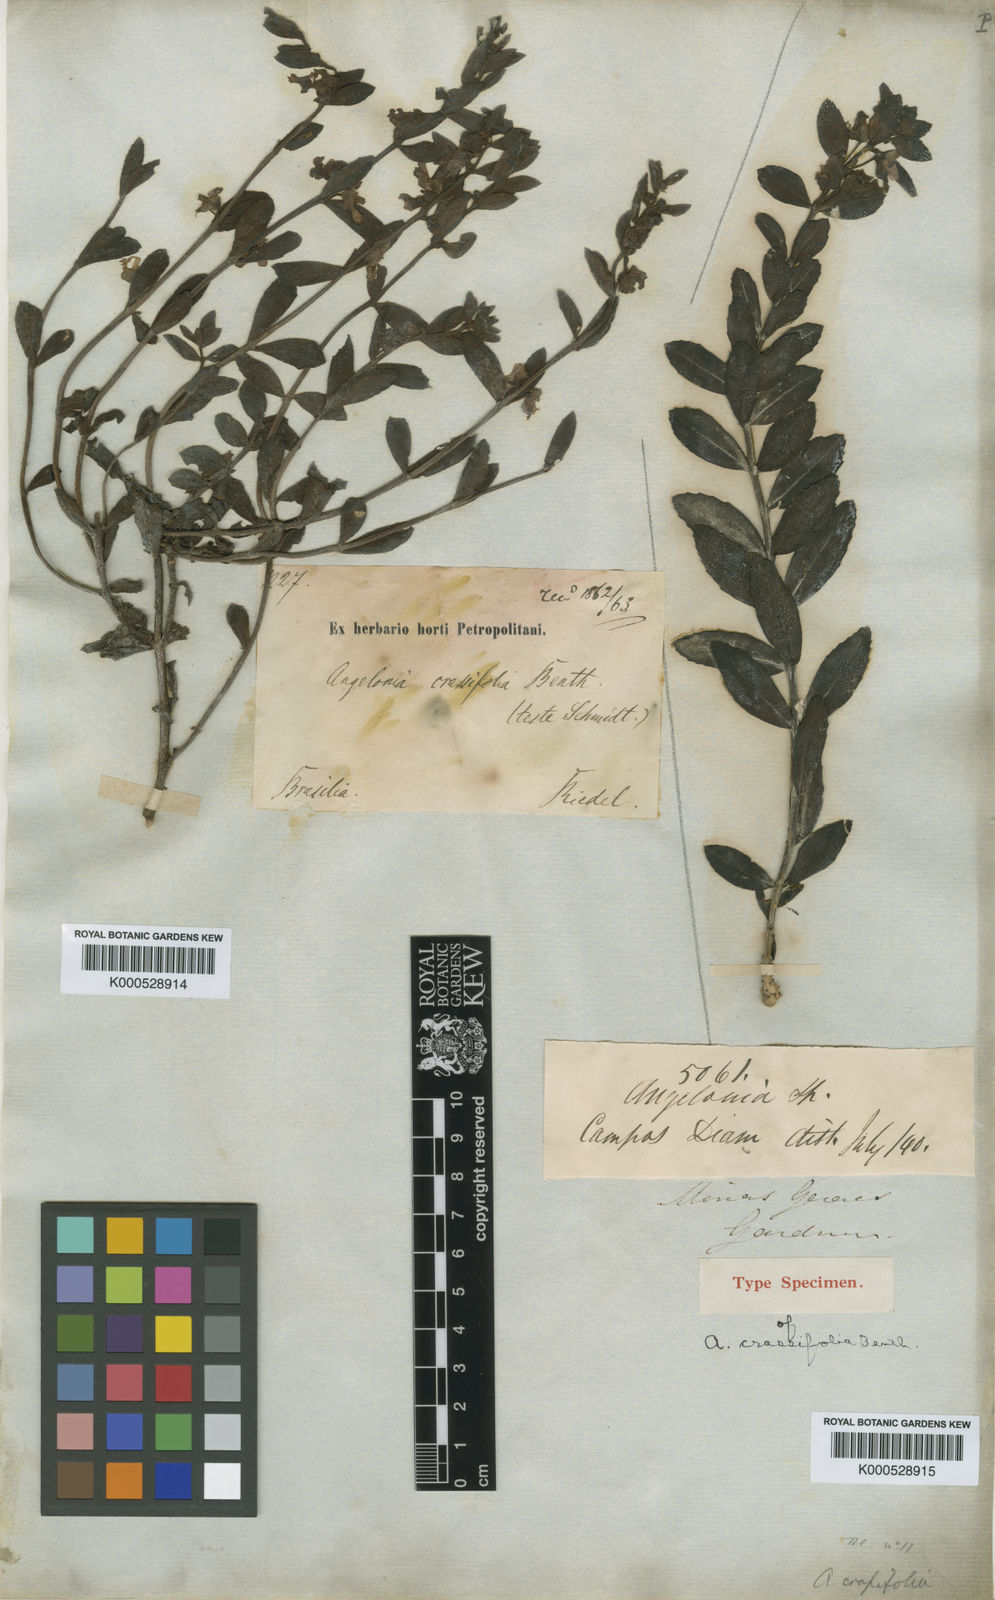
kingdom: Plantae
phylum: Tracheophyta
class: Magnoliopsida
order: Lamiales
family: Plantaginaceae
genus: Angelonia
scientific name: Angelonia crassifolia
